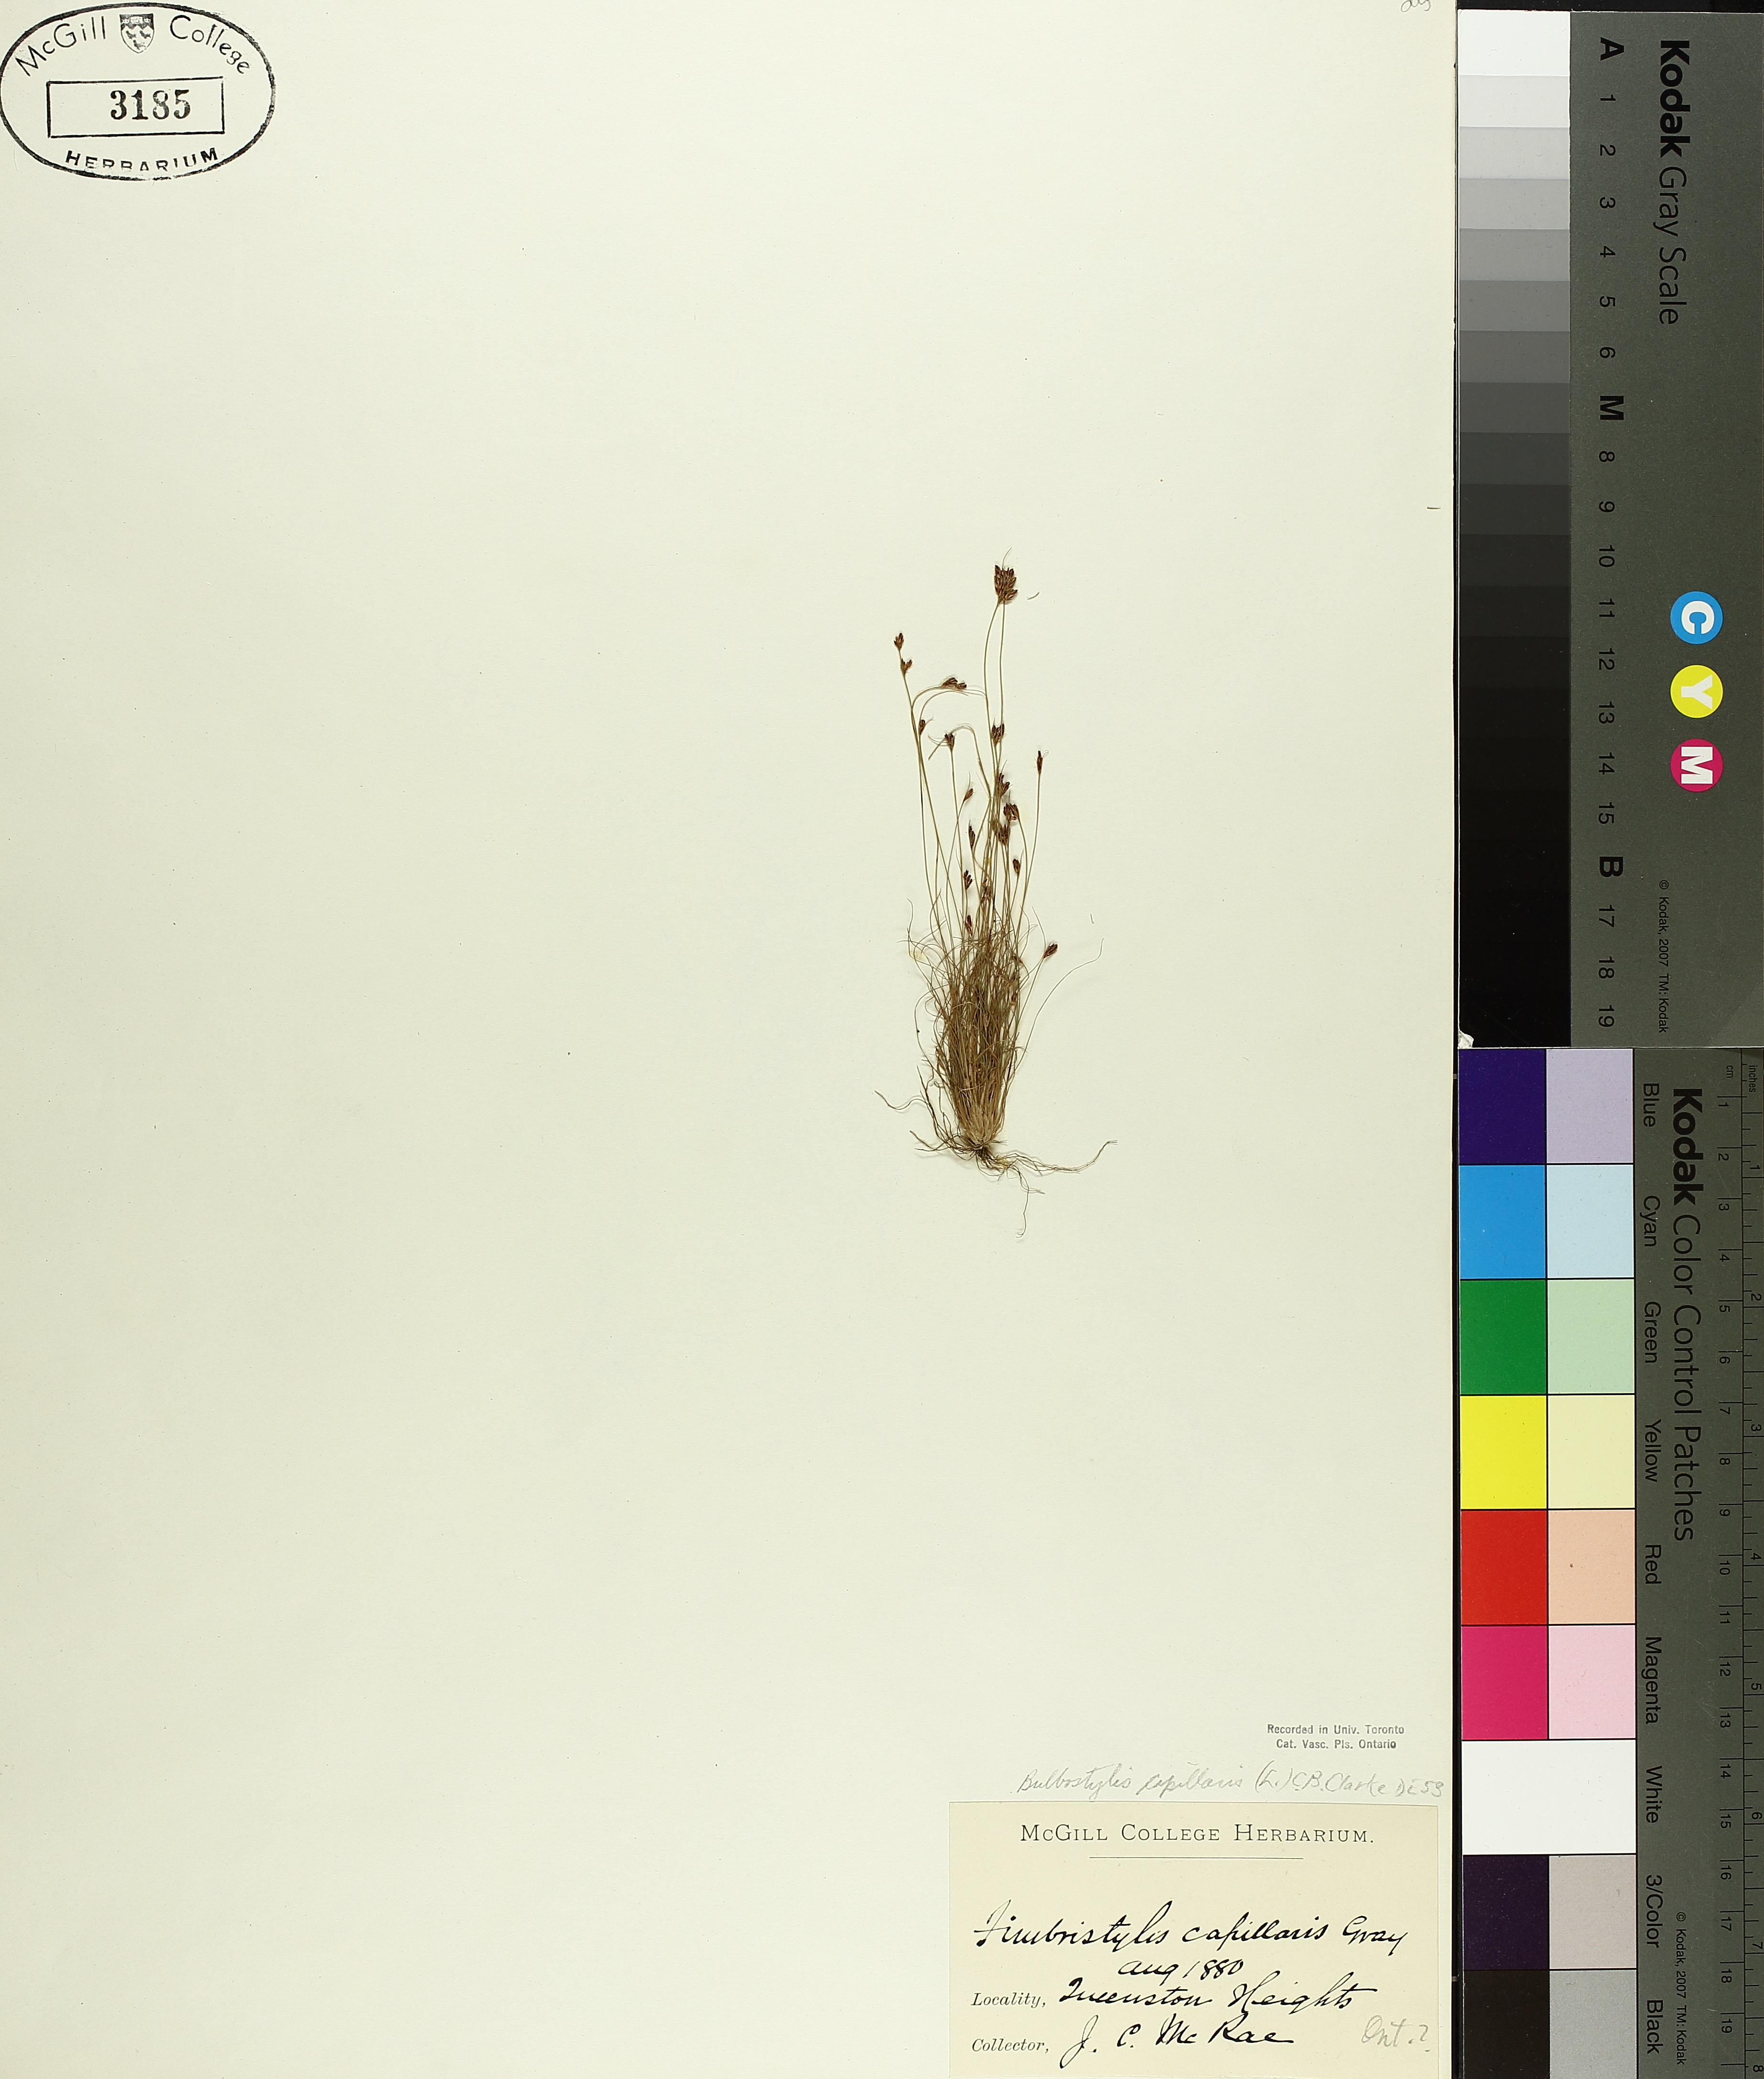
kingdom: Plantae
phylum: Tracheophyta
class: Liliopsida
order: Poales
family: Cyperaceae
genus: Bulbostylis
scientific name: Bulbostylis capillaris
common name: Densetuft hairsedge
